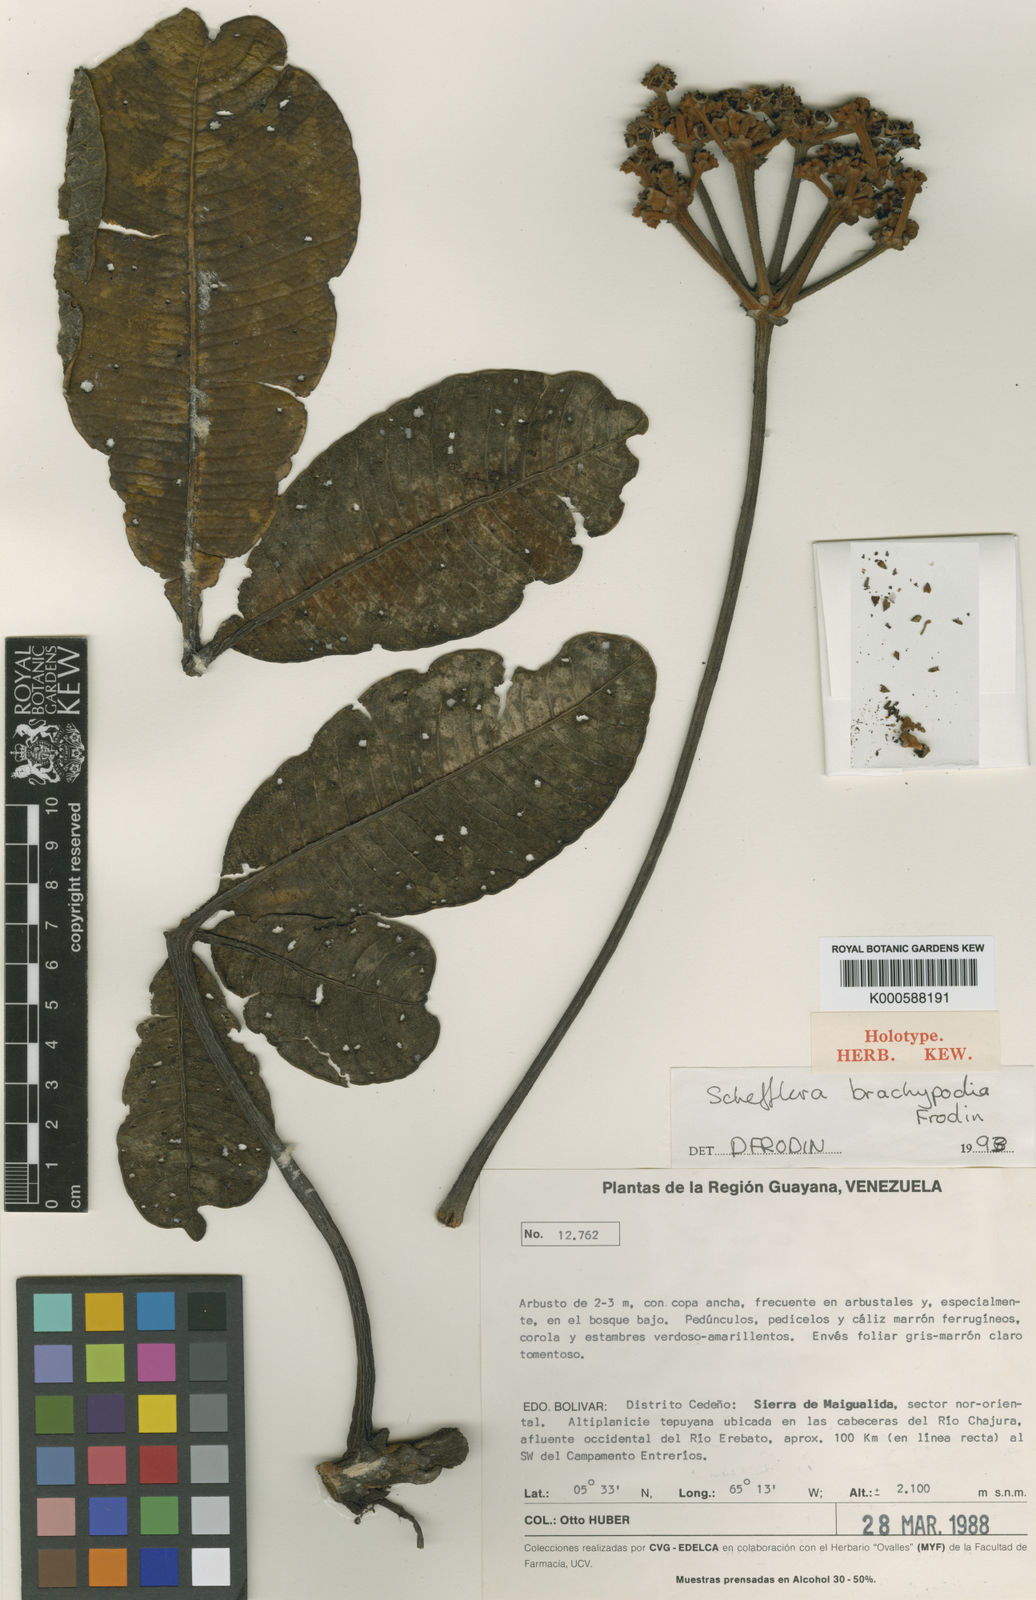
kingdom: Plantae
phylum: Tracheophyta
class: Magnoliopsida
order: Apiales
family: Araliaceae
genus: Crepinella
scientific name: Crepinella
